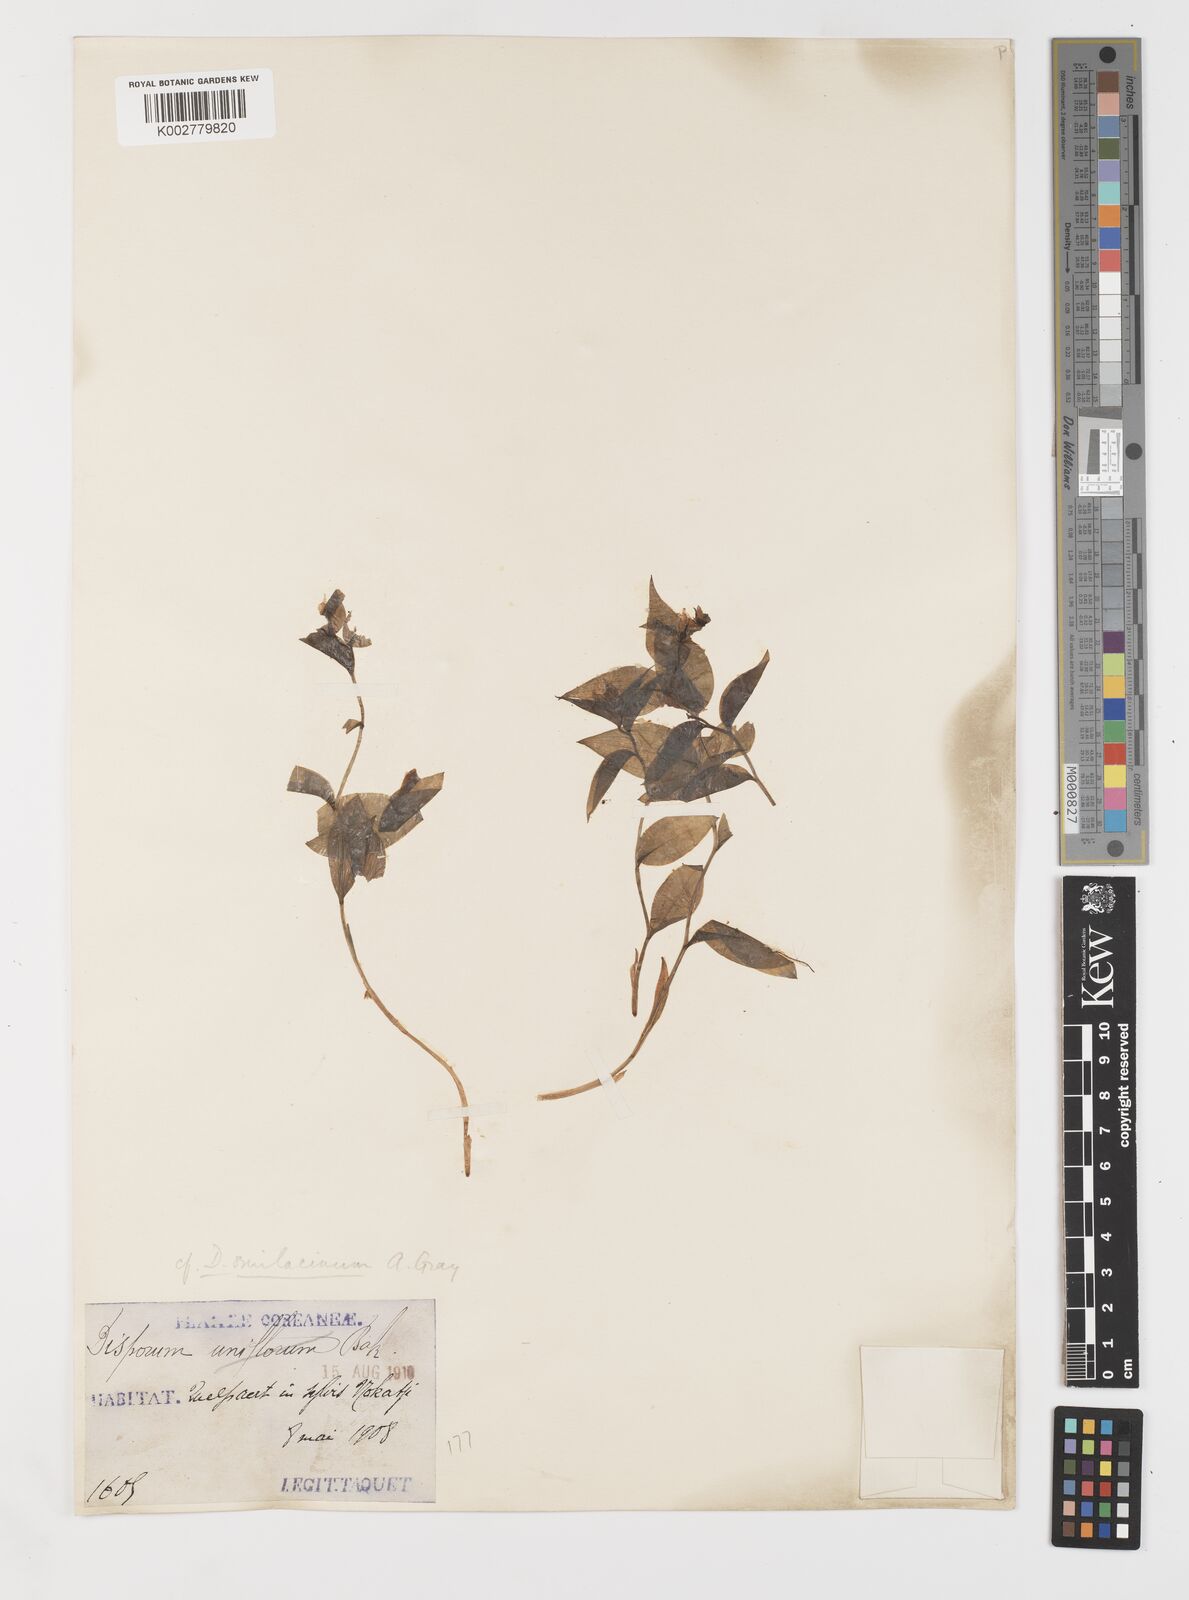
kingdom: Plantae
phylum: Tracheophyta
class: Liliopsida
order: Liliales
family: Colchicaceae
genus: Disporum
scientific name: Disporum smilacinum
